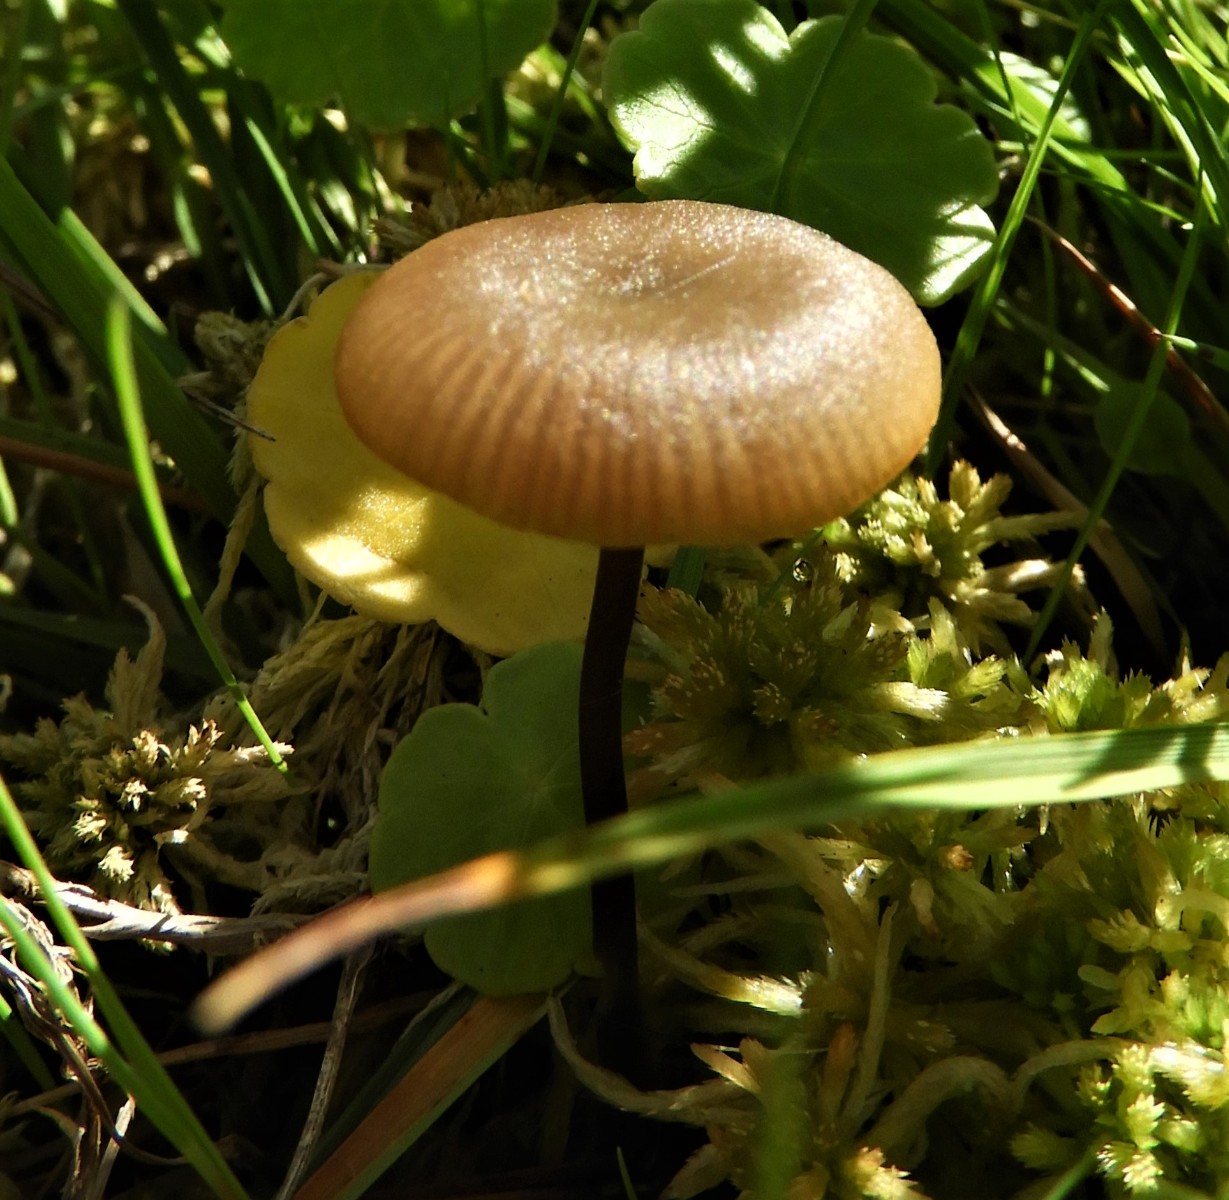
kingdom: Fungi
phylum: Basidiomycota
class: Agaricomycetes
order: Agaricales
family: Lyophyllaceae
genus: Sphagnurus
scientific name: Sphagnurus paluster
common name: tørvemos-gråblad
